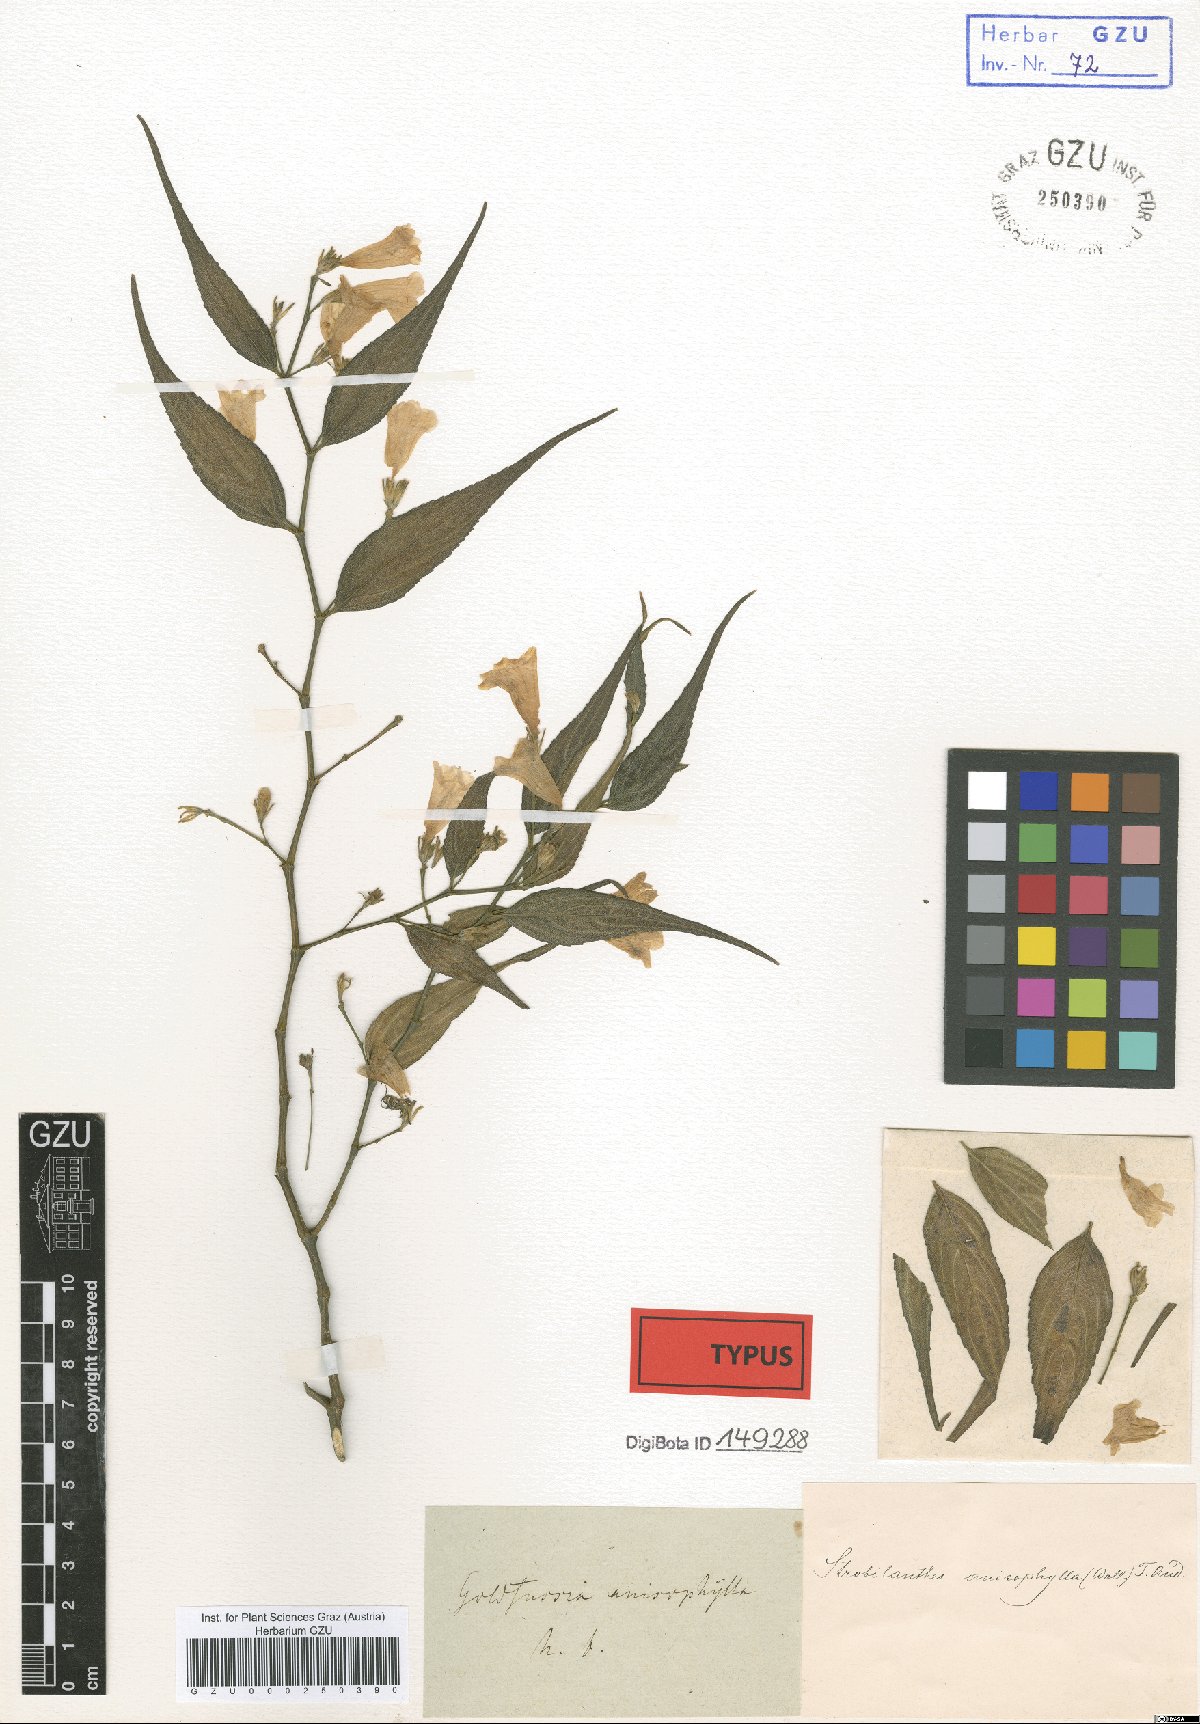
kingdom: Plantae
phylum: Tracheophyta
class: Magnoliopsida
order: Lamiales
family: Acanthaceae
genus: Strobilanthes
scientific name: Strobilanthes anisophylla
